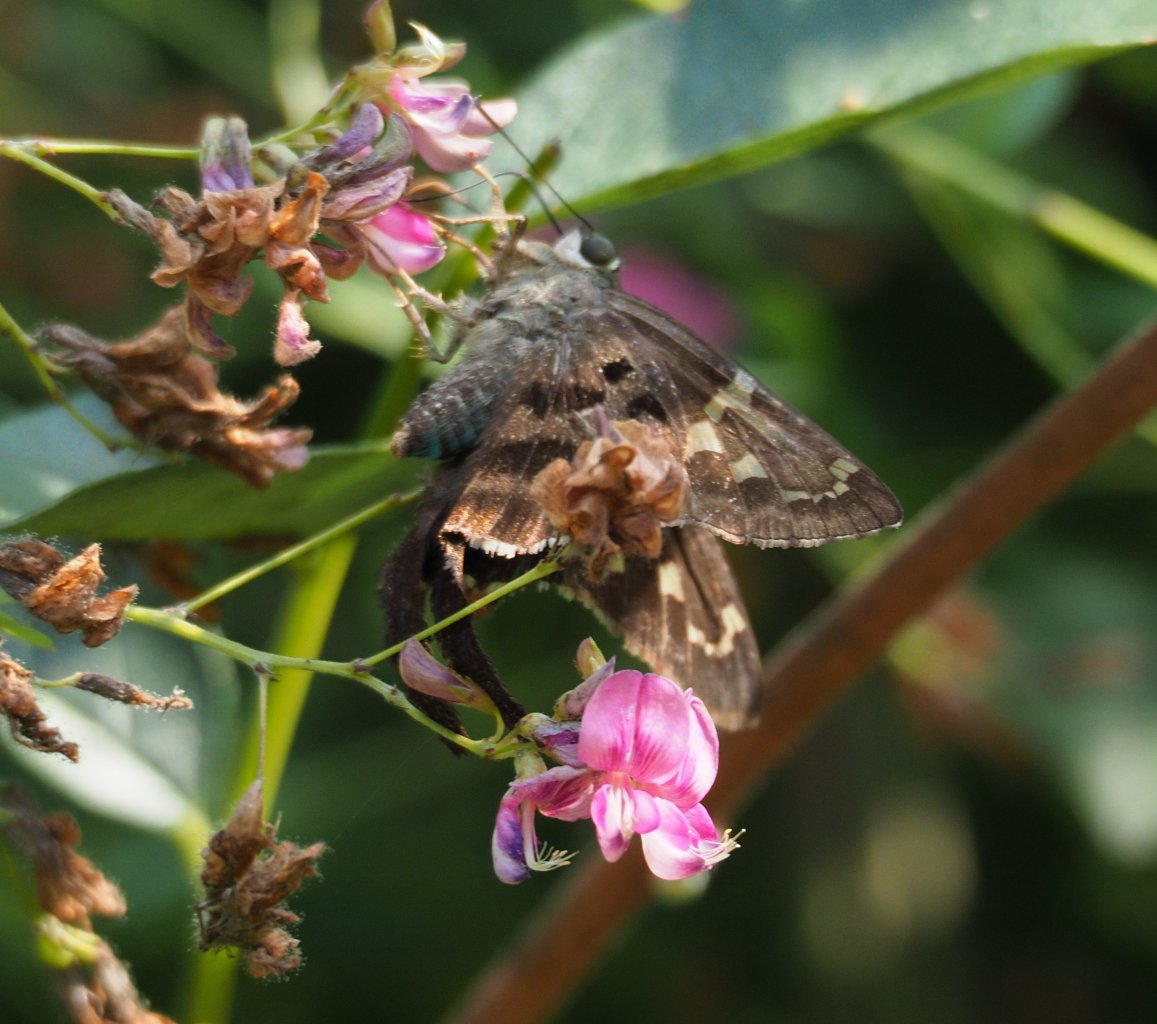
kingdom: Animalia
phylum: Arthropoda
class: Insecta
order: Lepidoptera
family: Hesperiidae
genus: Urbanus
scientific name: Urbanus proteus
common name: Long-tailed Skipper
